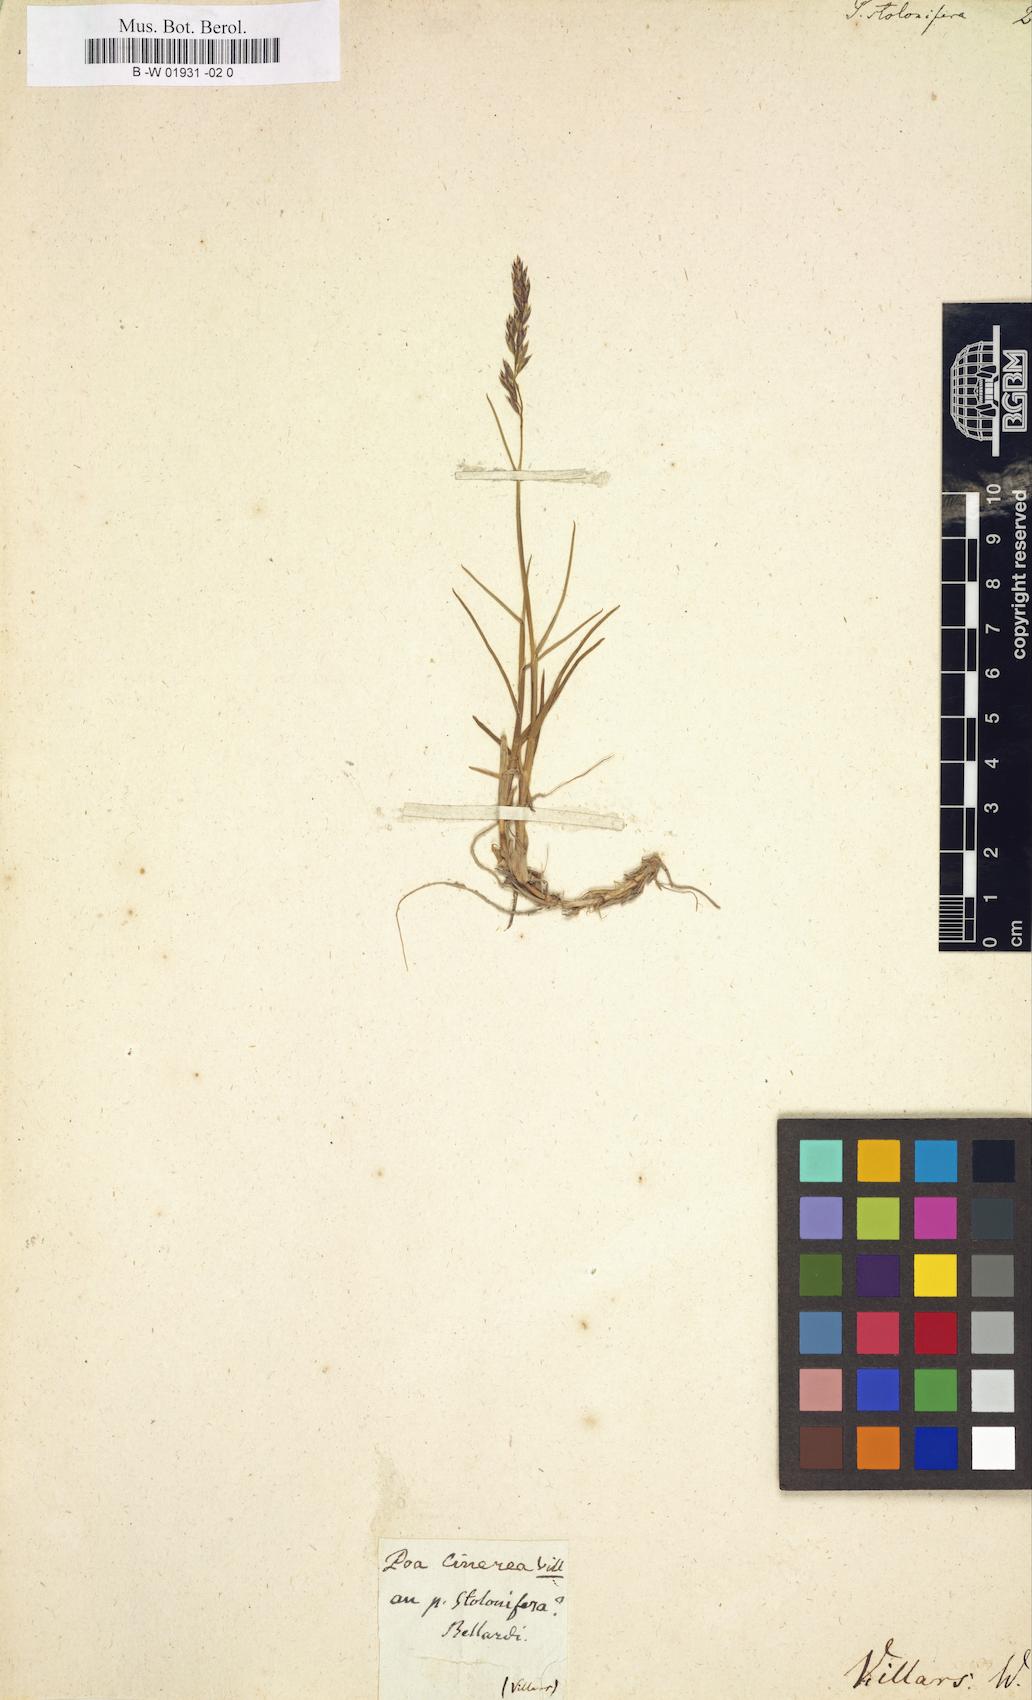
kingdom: Plantae
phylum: Tracheophyta
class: Liliopsida
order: Poales
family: Poaceae
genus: Poa
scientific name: Poa alpina
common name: Alpine bluegrass
